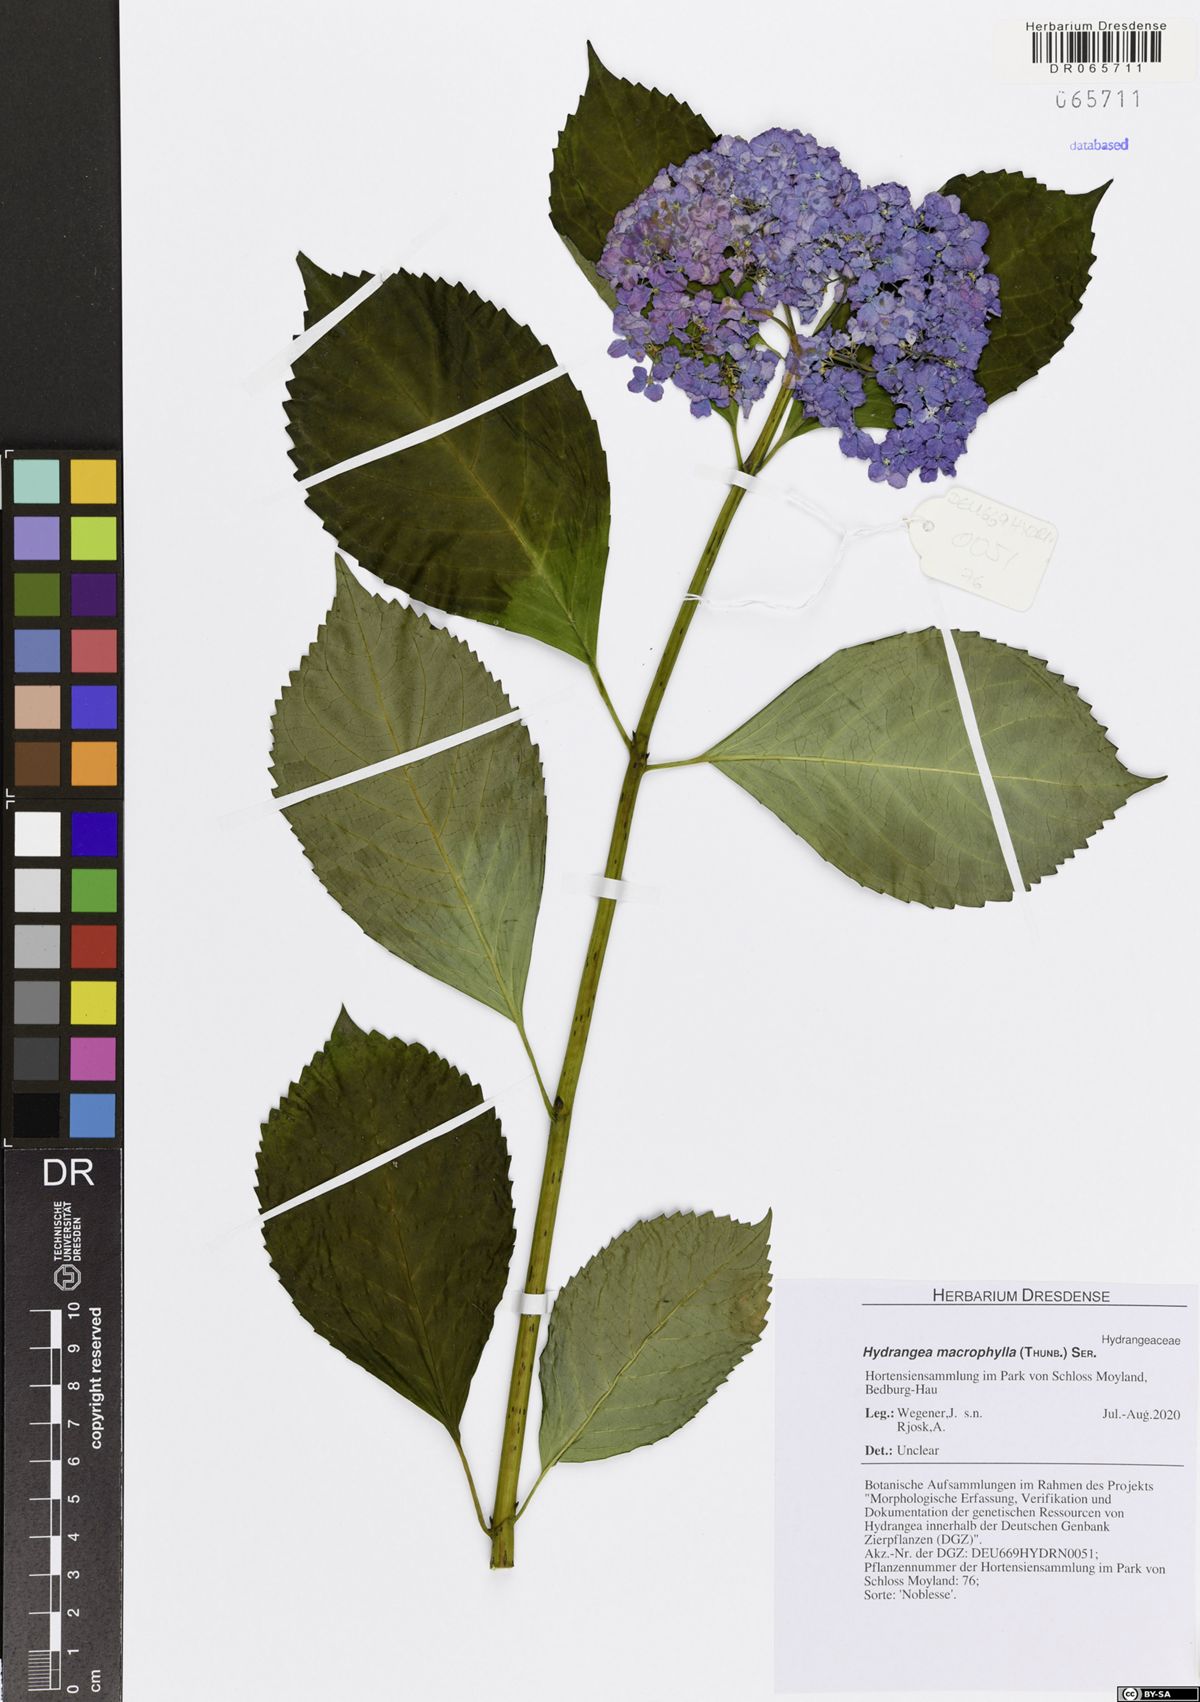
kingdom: Plantae
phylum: Tracheophyta
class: Magnoliopsida
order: Cornales
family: Hydrangeaceae
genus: Hydrangea
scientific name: Hydrangea macrophylla
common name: Hydrangea
